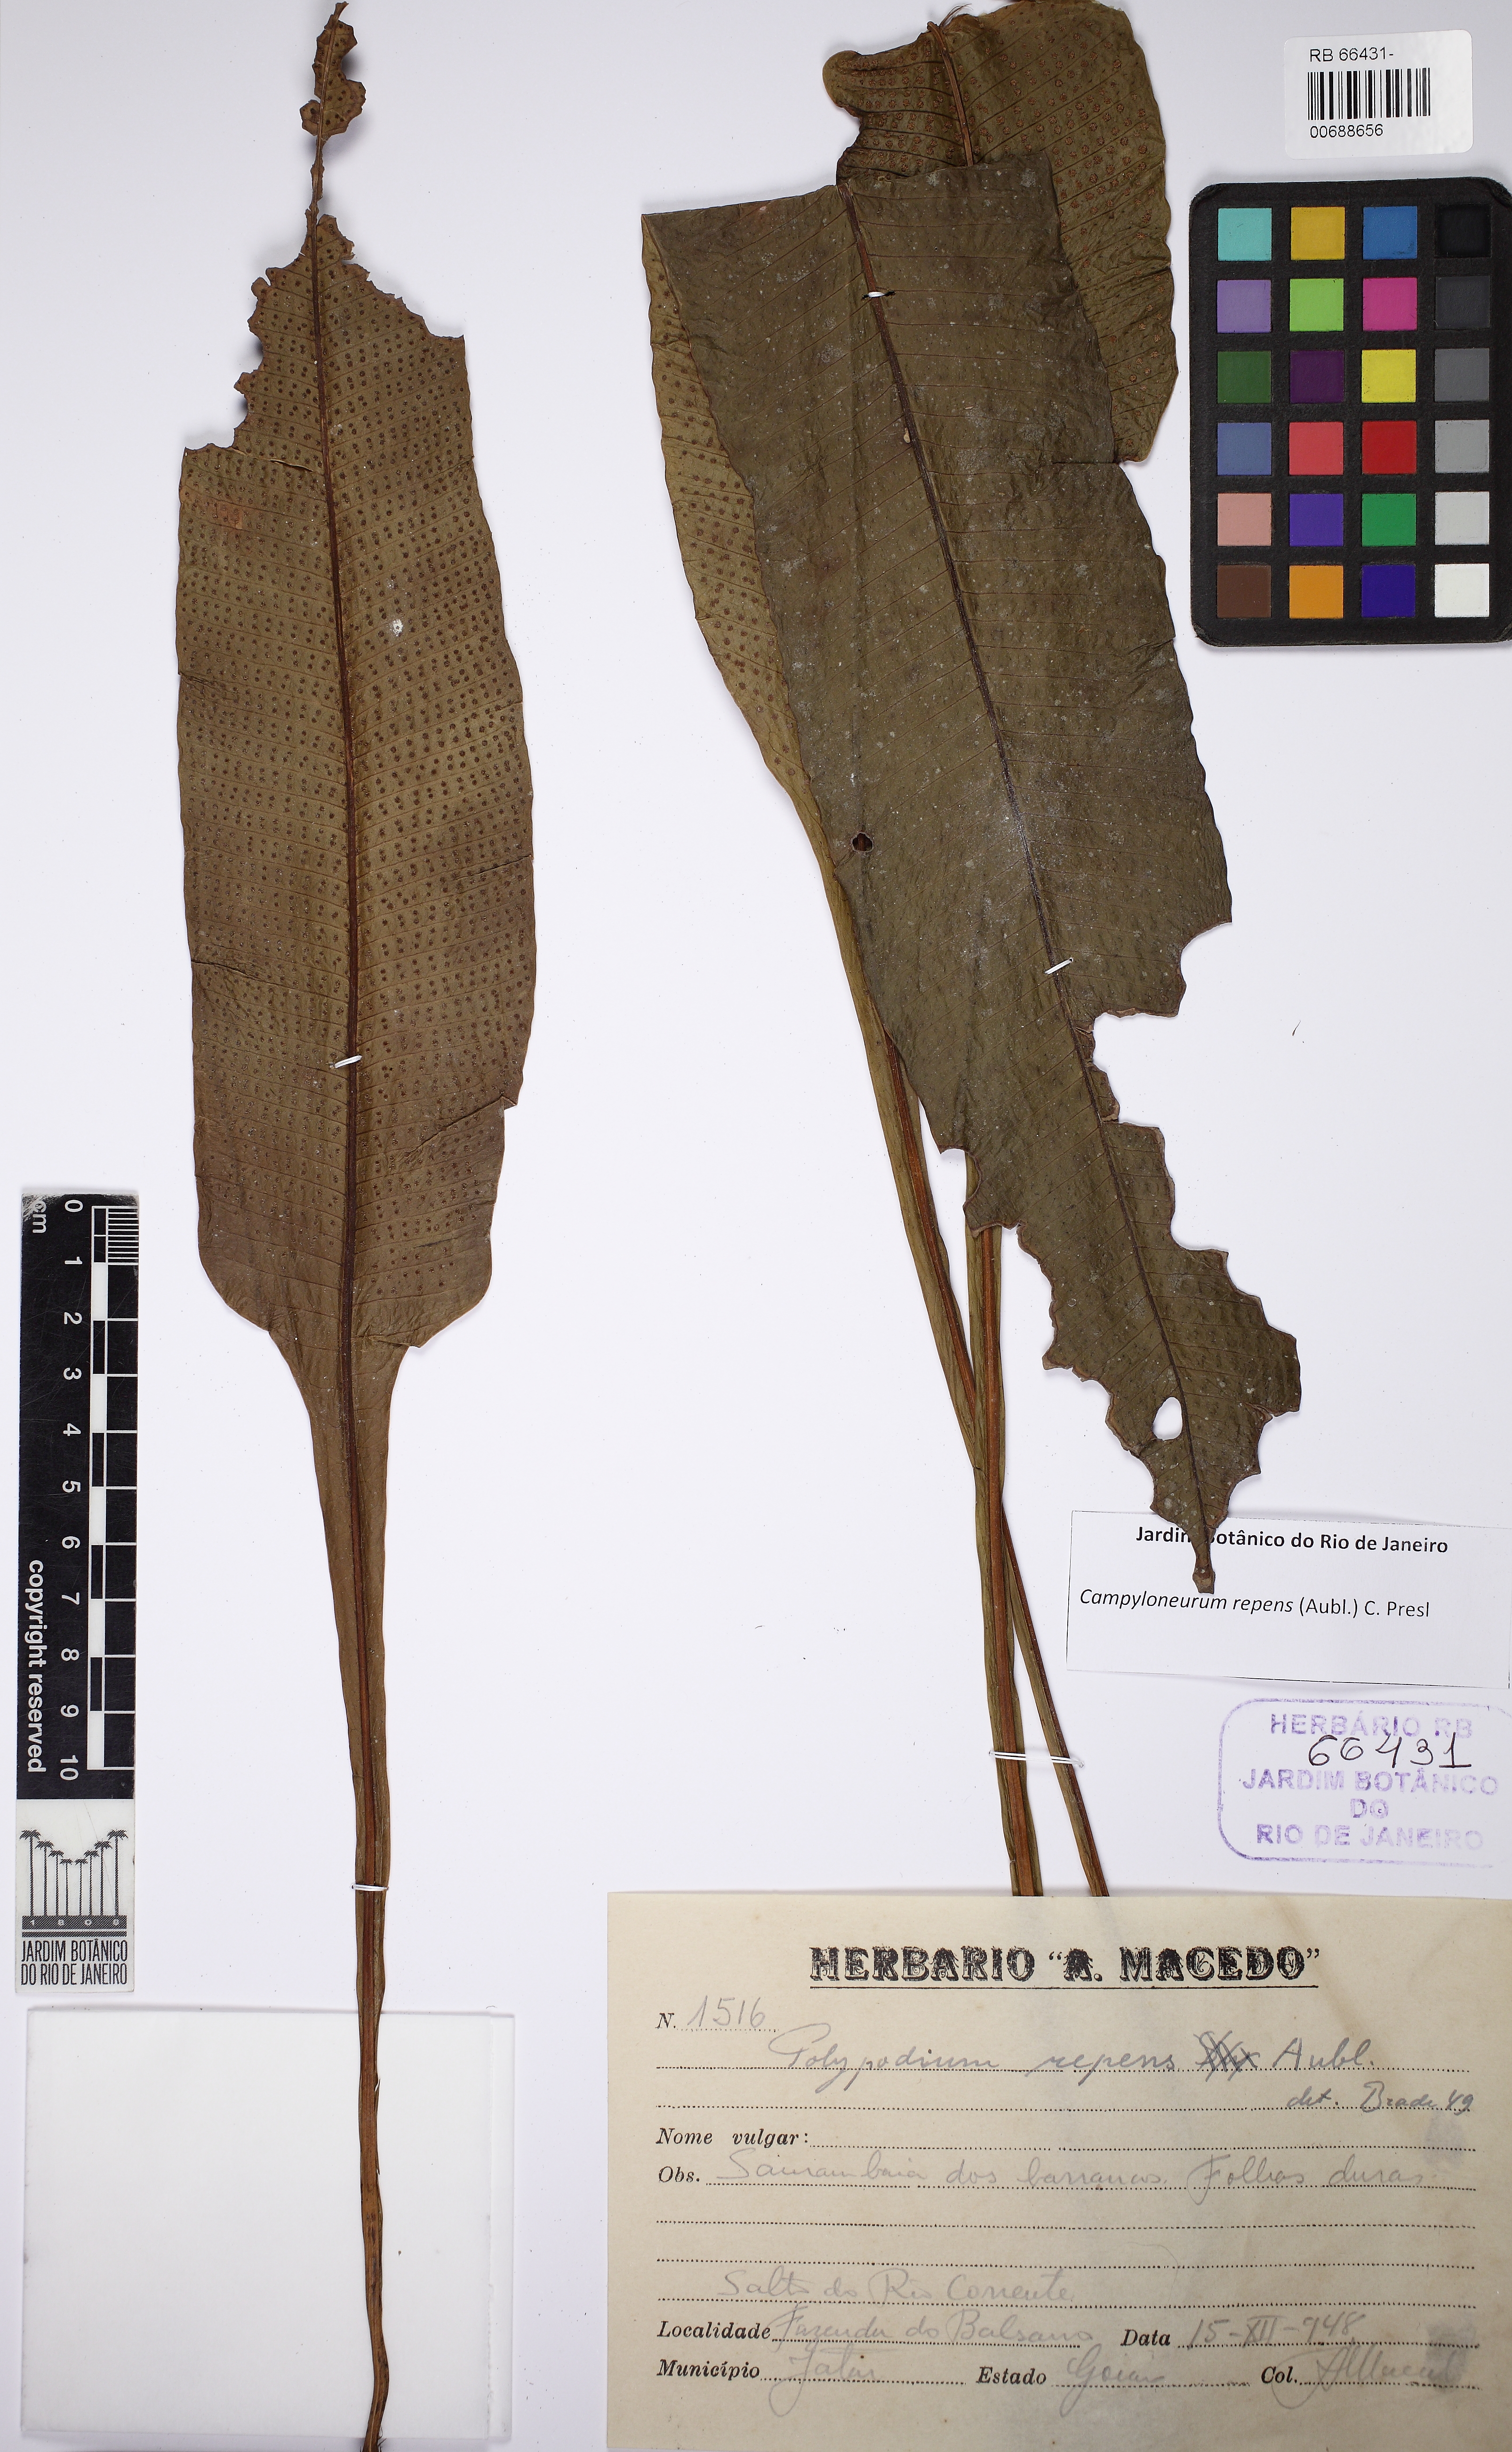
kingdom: Plantae
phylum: Tracheophyta
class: Polypodiopsida
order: Polypodiales
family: Polypodiaceae
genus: Campyloneurum
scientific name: Campyloneurum repens
